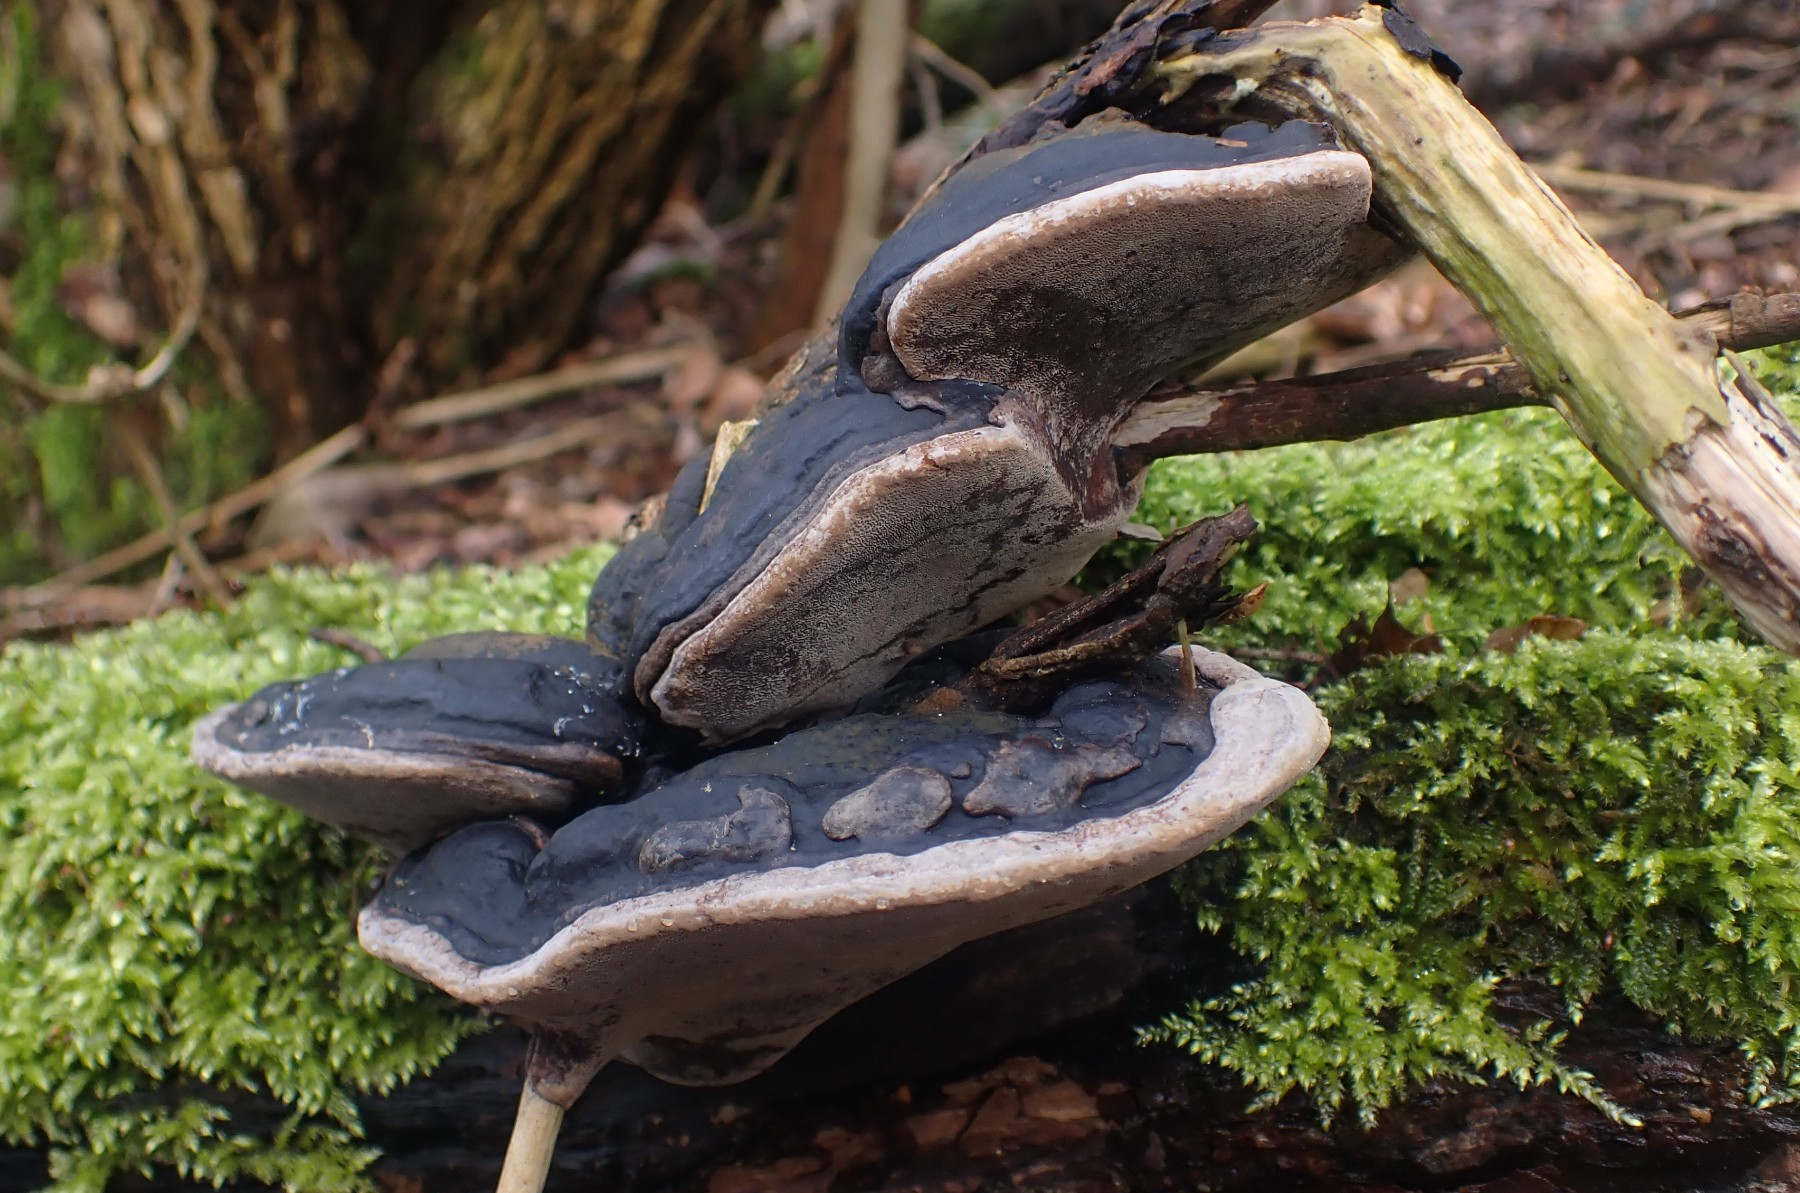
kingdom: Fungi
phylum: Basidiomycota
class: Agaricomycetes
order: Hymenochaetales
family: Hymenochaetaceae
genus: Phellinus
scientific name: Phellinus igniarius
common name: almindelig ildporesvamp
